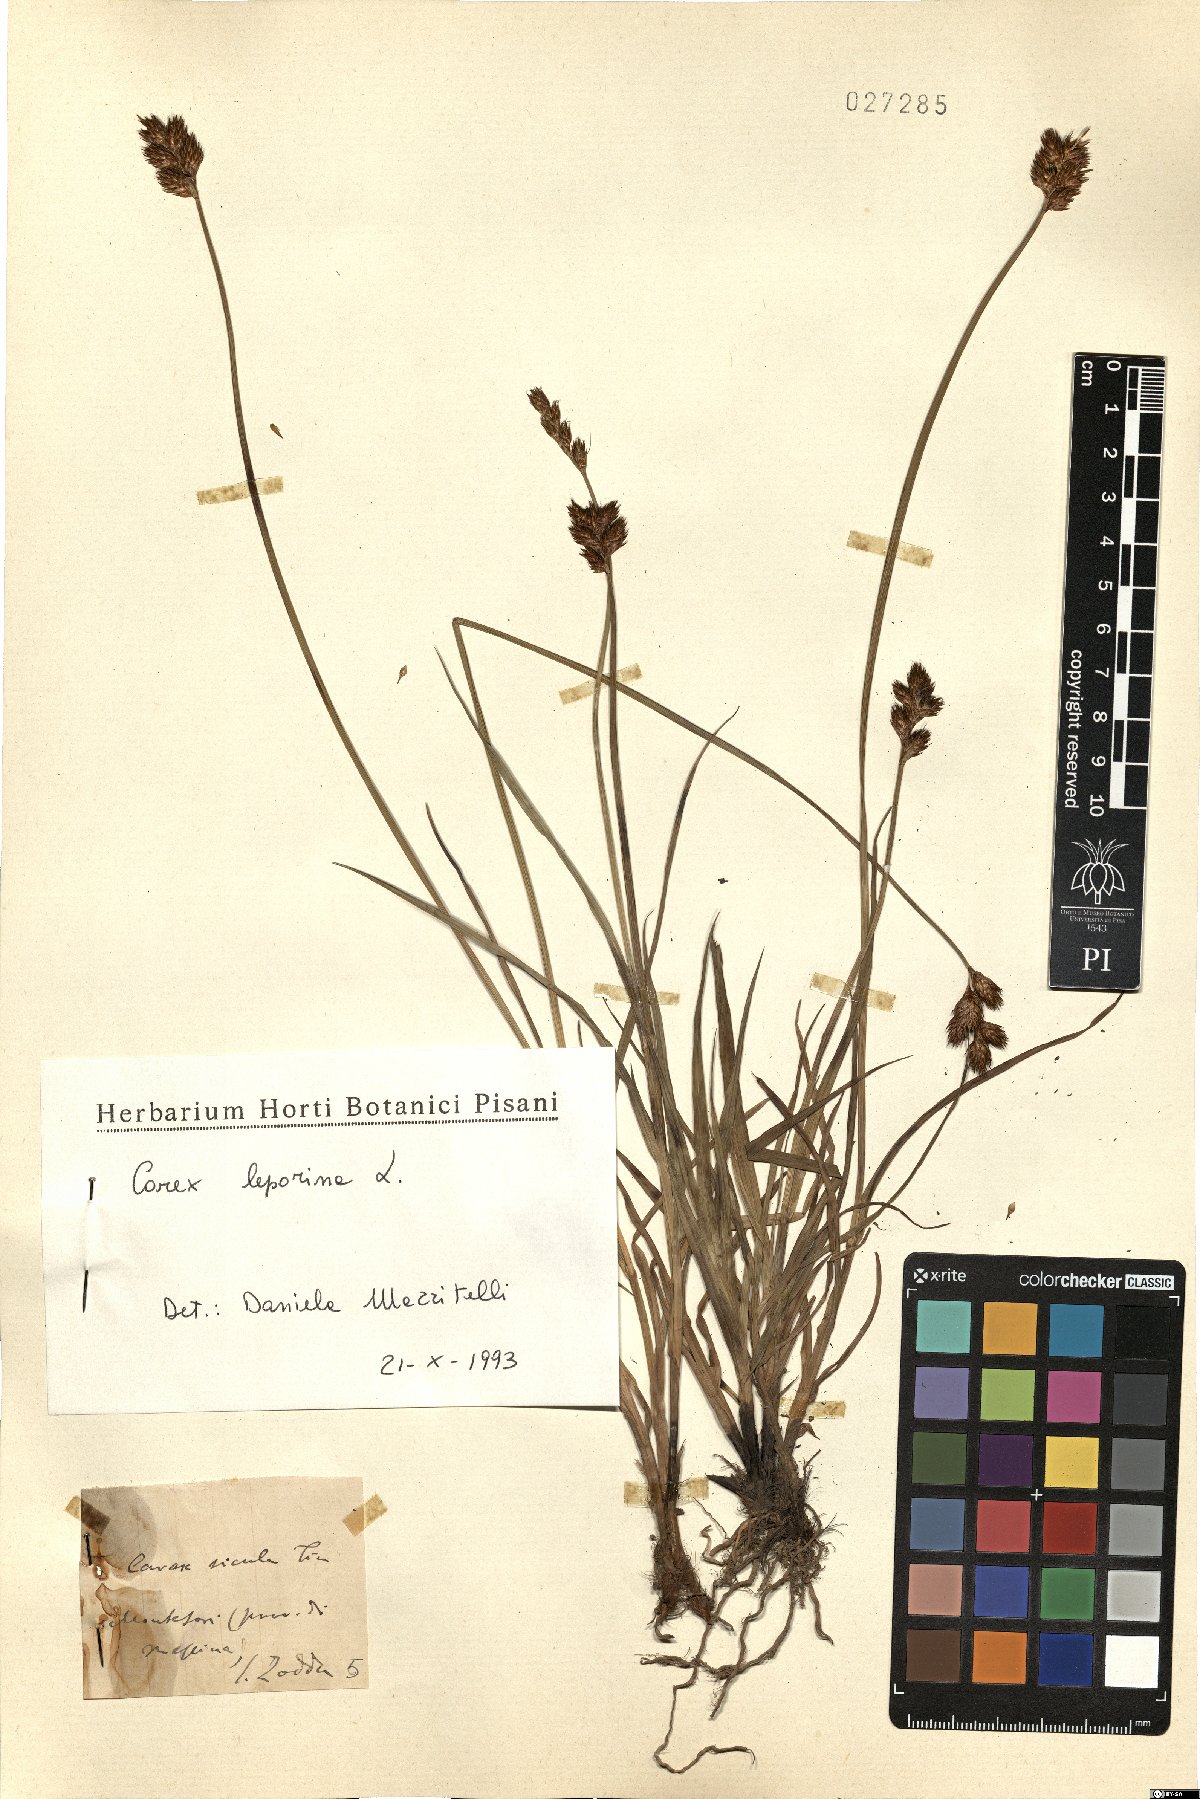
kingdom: Plantae
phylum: Tracheophyta
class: Liliopsida
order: Poales
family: Cyperaceae
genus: Carex
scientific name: Carex leporina
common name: Oval sedge
